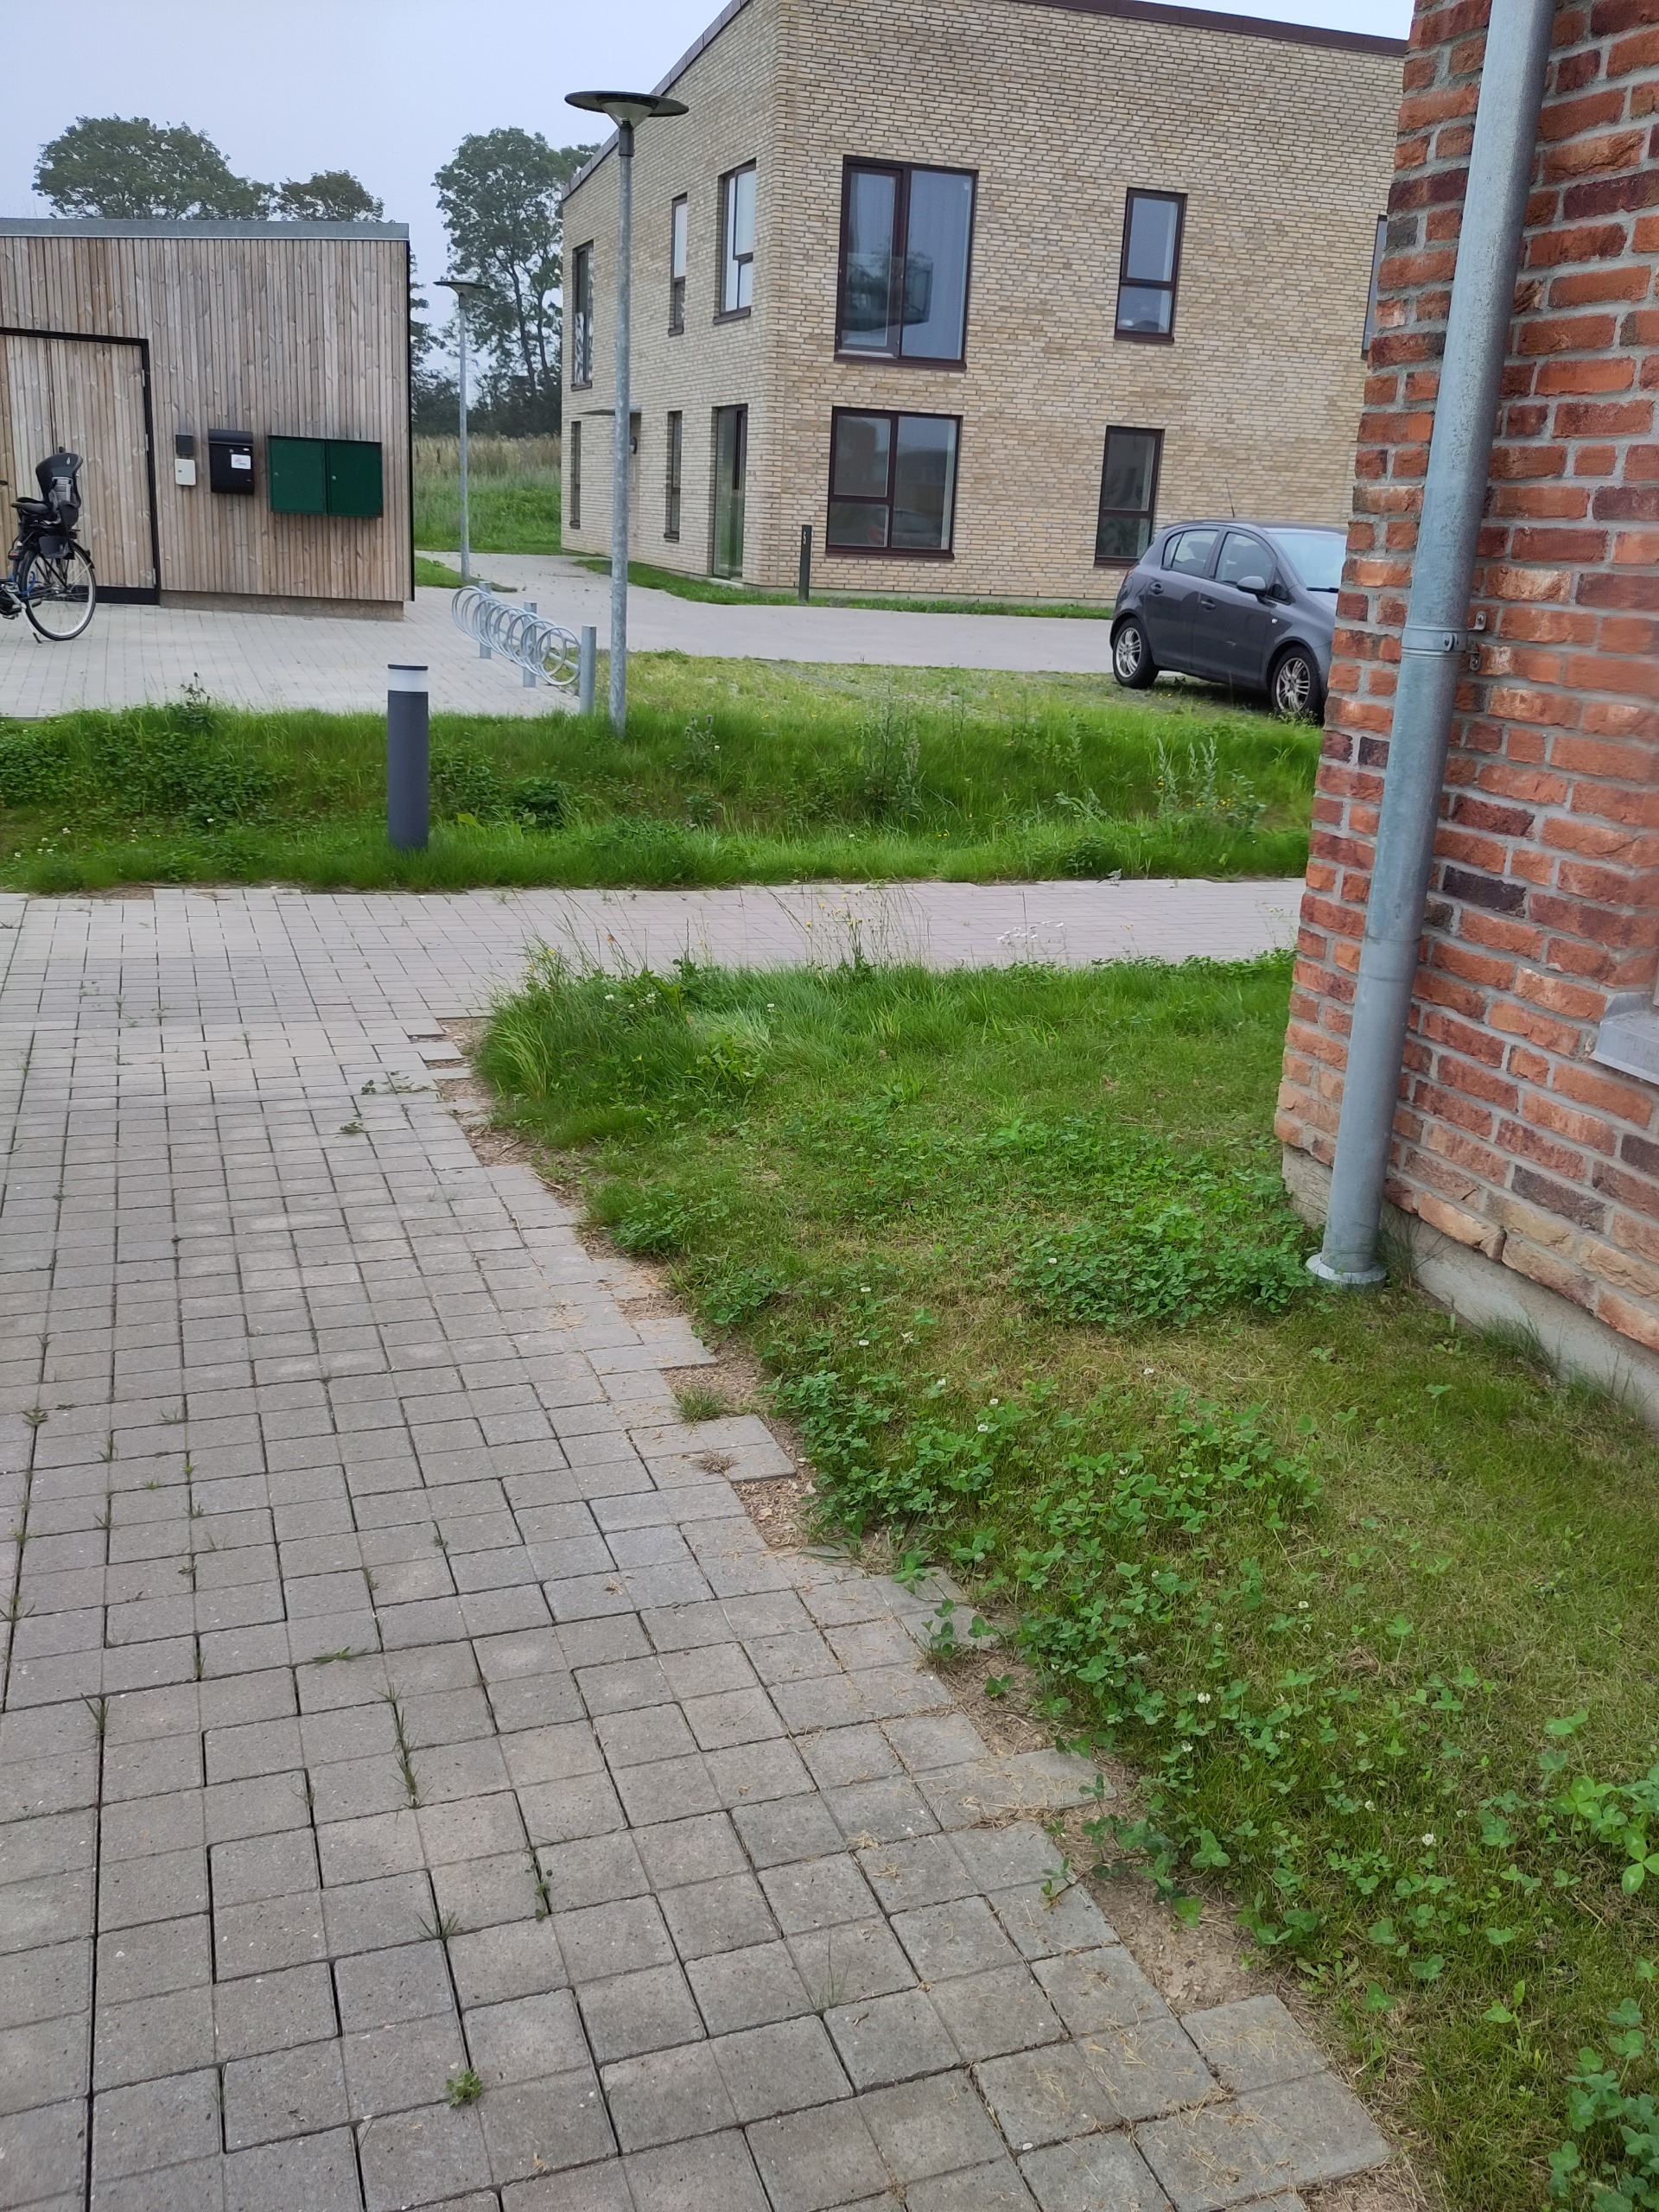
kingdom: Animalia
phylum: Chordata
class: Aves
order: Passeriformes
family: Motacillidae
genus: Motacilla
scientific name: Motacilla alba
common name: Hvid vipstjert
